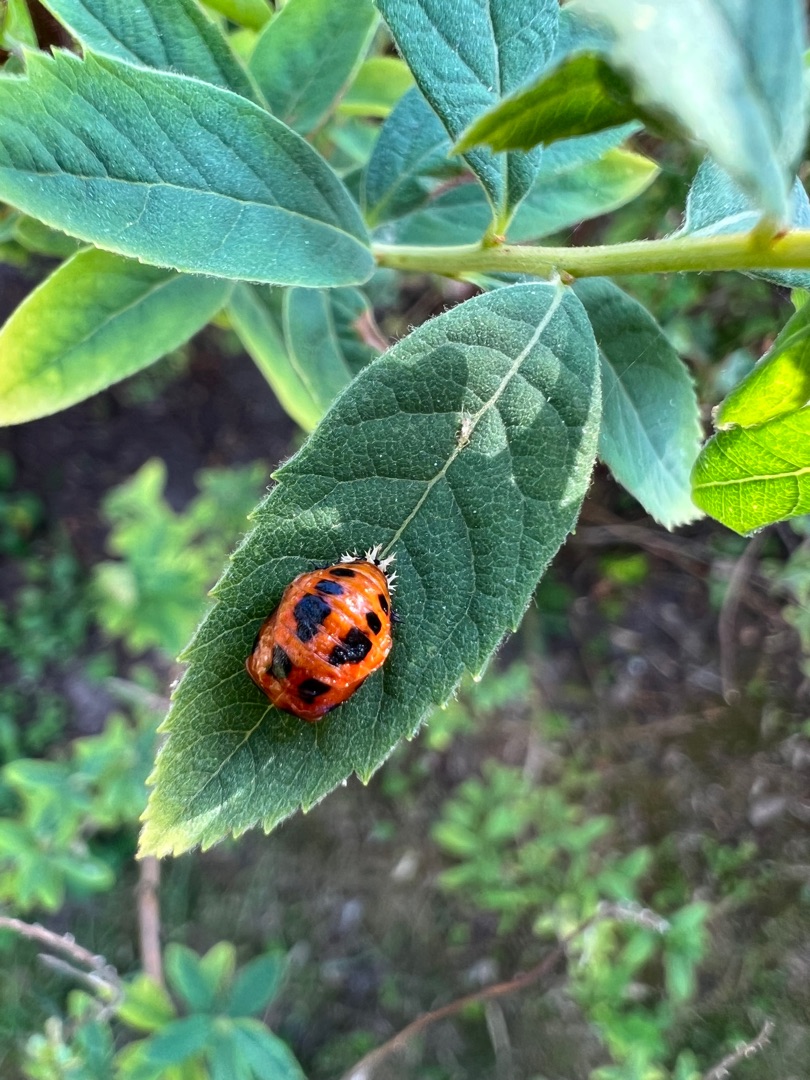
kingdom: Animalia
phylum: Arthropoda
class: Insecta
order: Coleoptera
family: Coccinellidae
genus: Harmonia
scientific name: Harmonia axyridis
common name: Harlekinmariehøne
